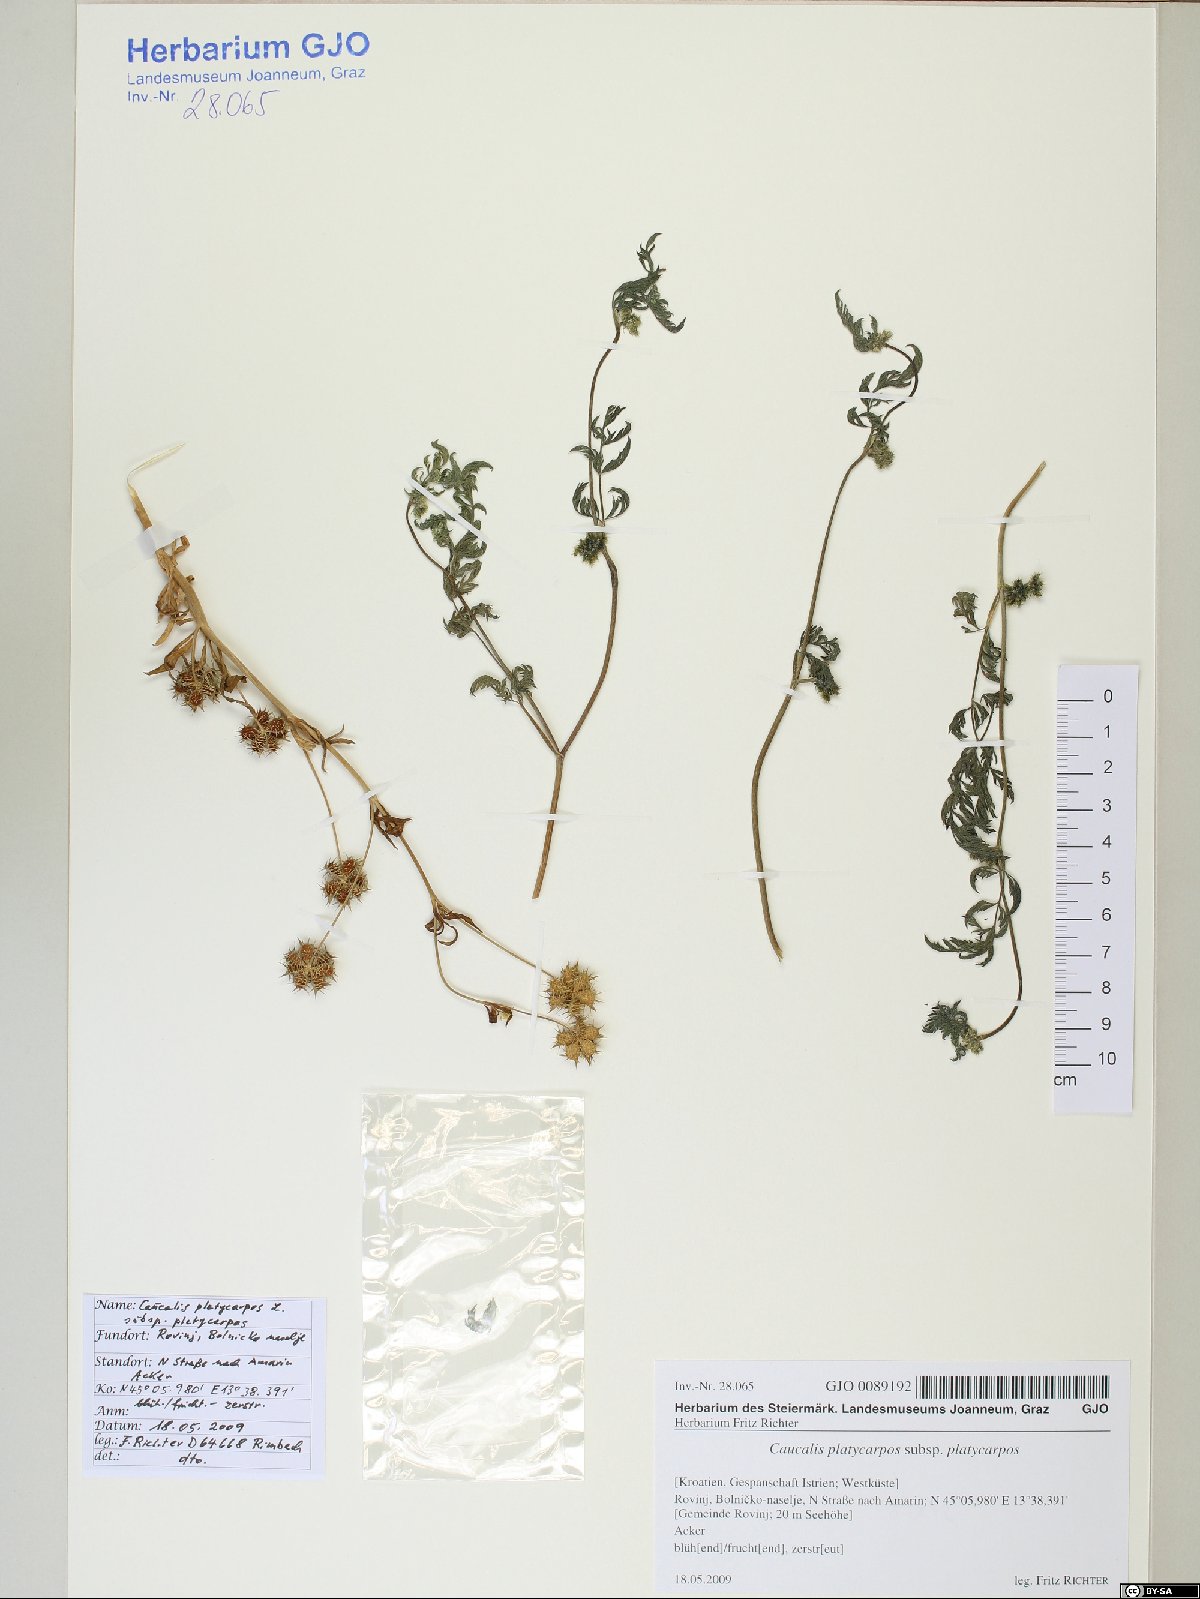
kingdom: Plantae
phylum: Tracheophyta
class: Magnoliopsida
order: Apiales
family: Apiaceae
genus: Caucalis
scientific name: Caucalis platycarpos
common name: Small bur-parsley
